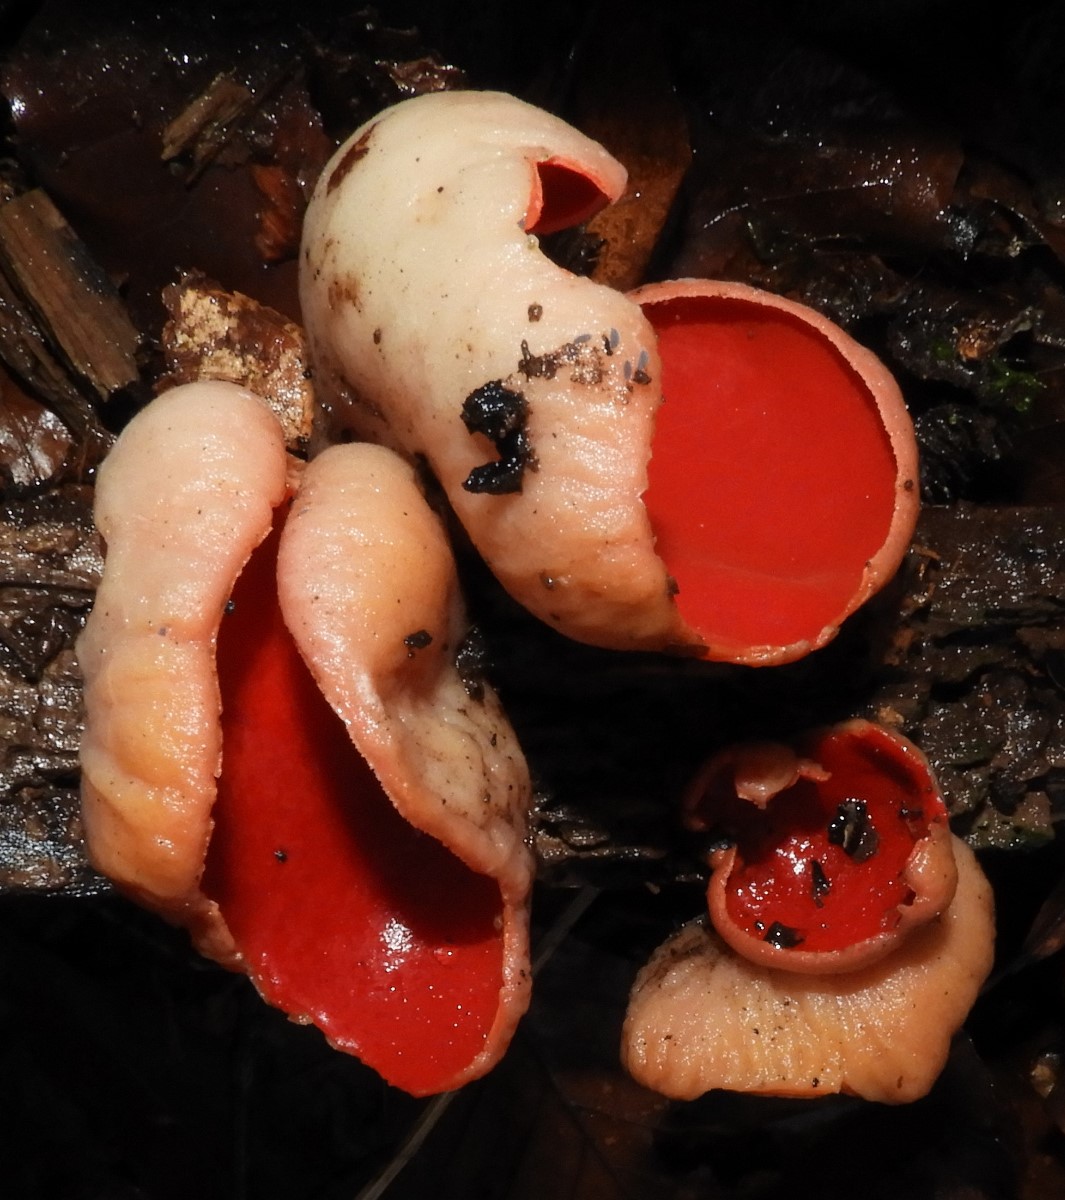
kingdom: Fungi
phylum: Ascomycota
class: Pezizomycetes
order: Pezizales
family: Sarcoscyphaceae
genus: Sarcoscypha
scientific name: Sarcoscypha austriaca
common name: krølhåret pragtbæger
